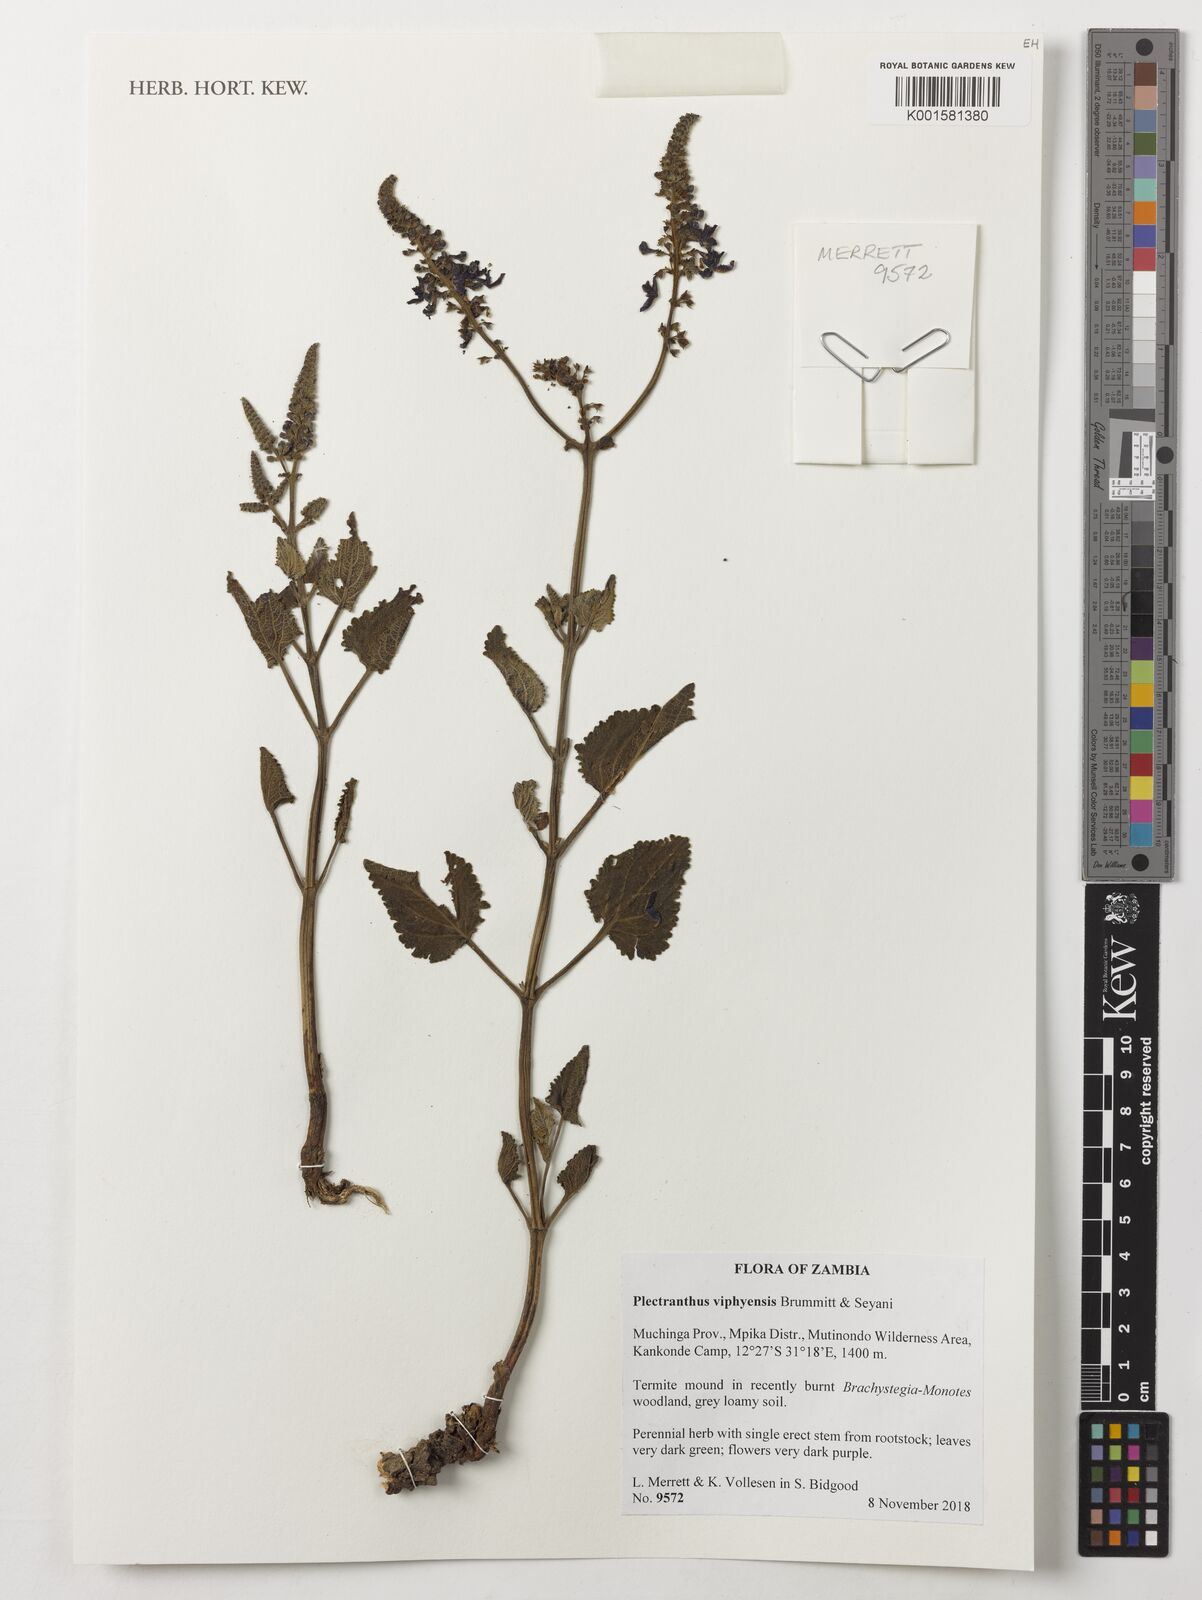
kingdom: Plantae
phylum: Tracheophyta
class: Magnoliopsida
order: Lamiales
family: Lamiaceae
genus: Equilabium
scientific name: Equilabium viphyense
